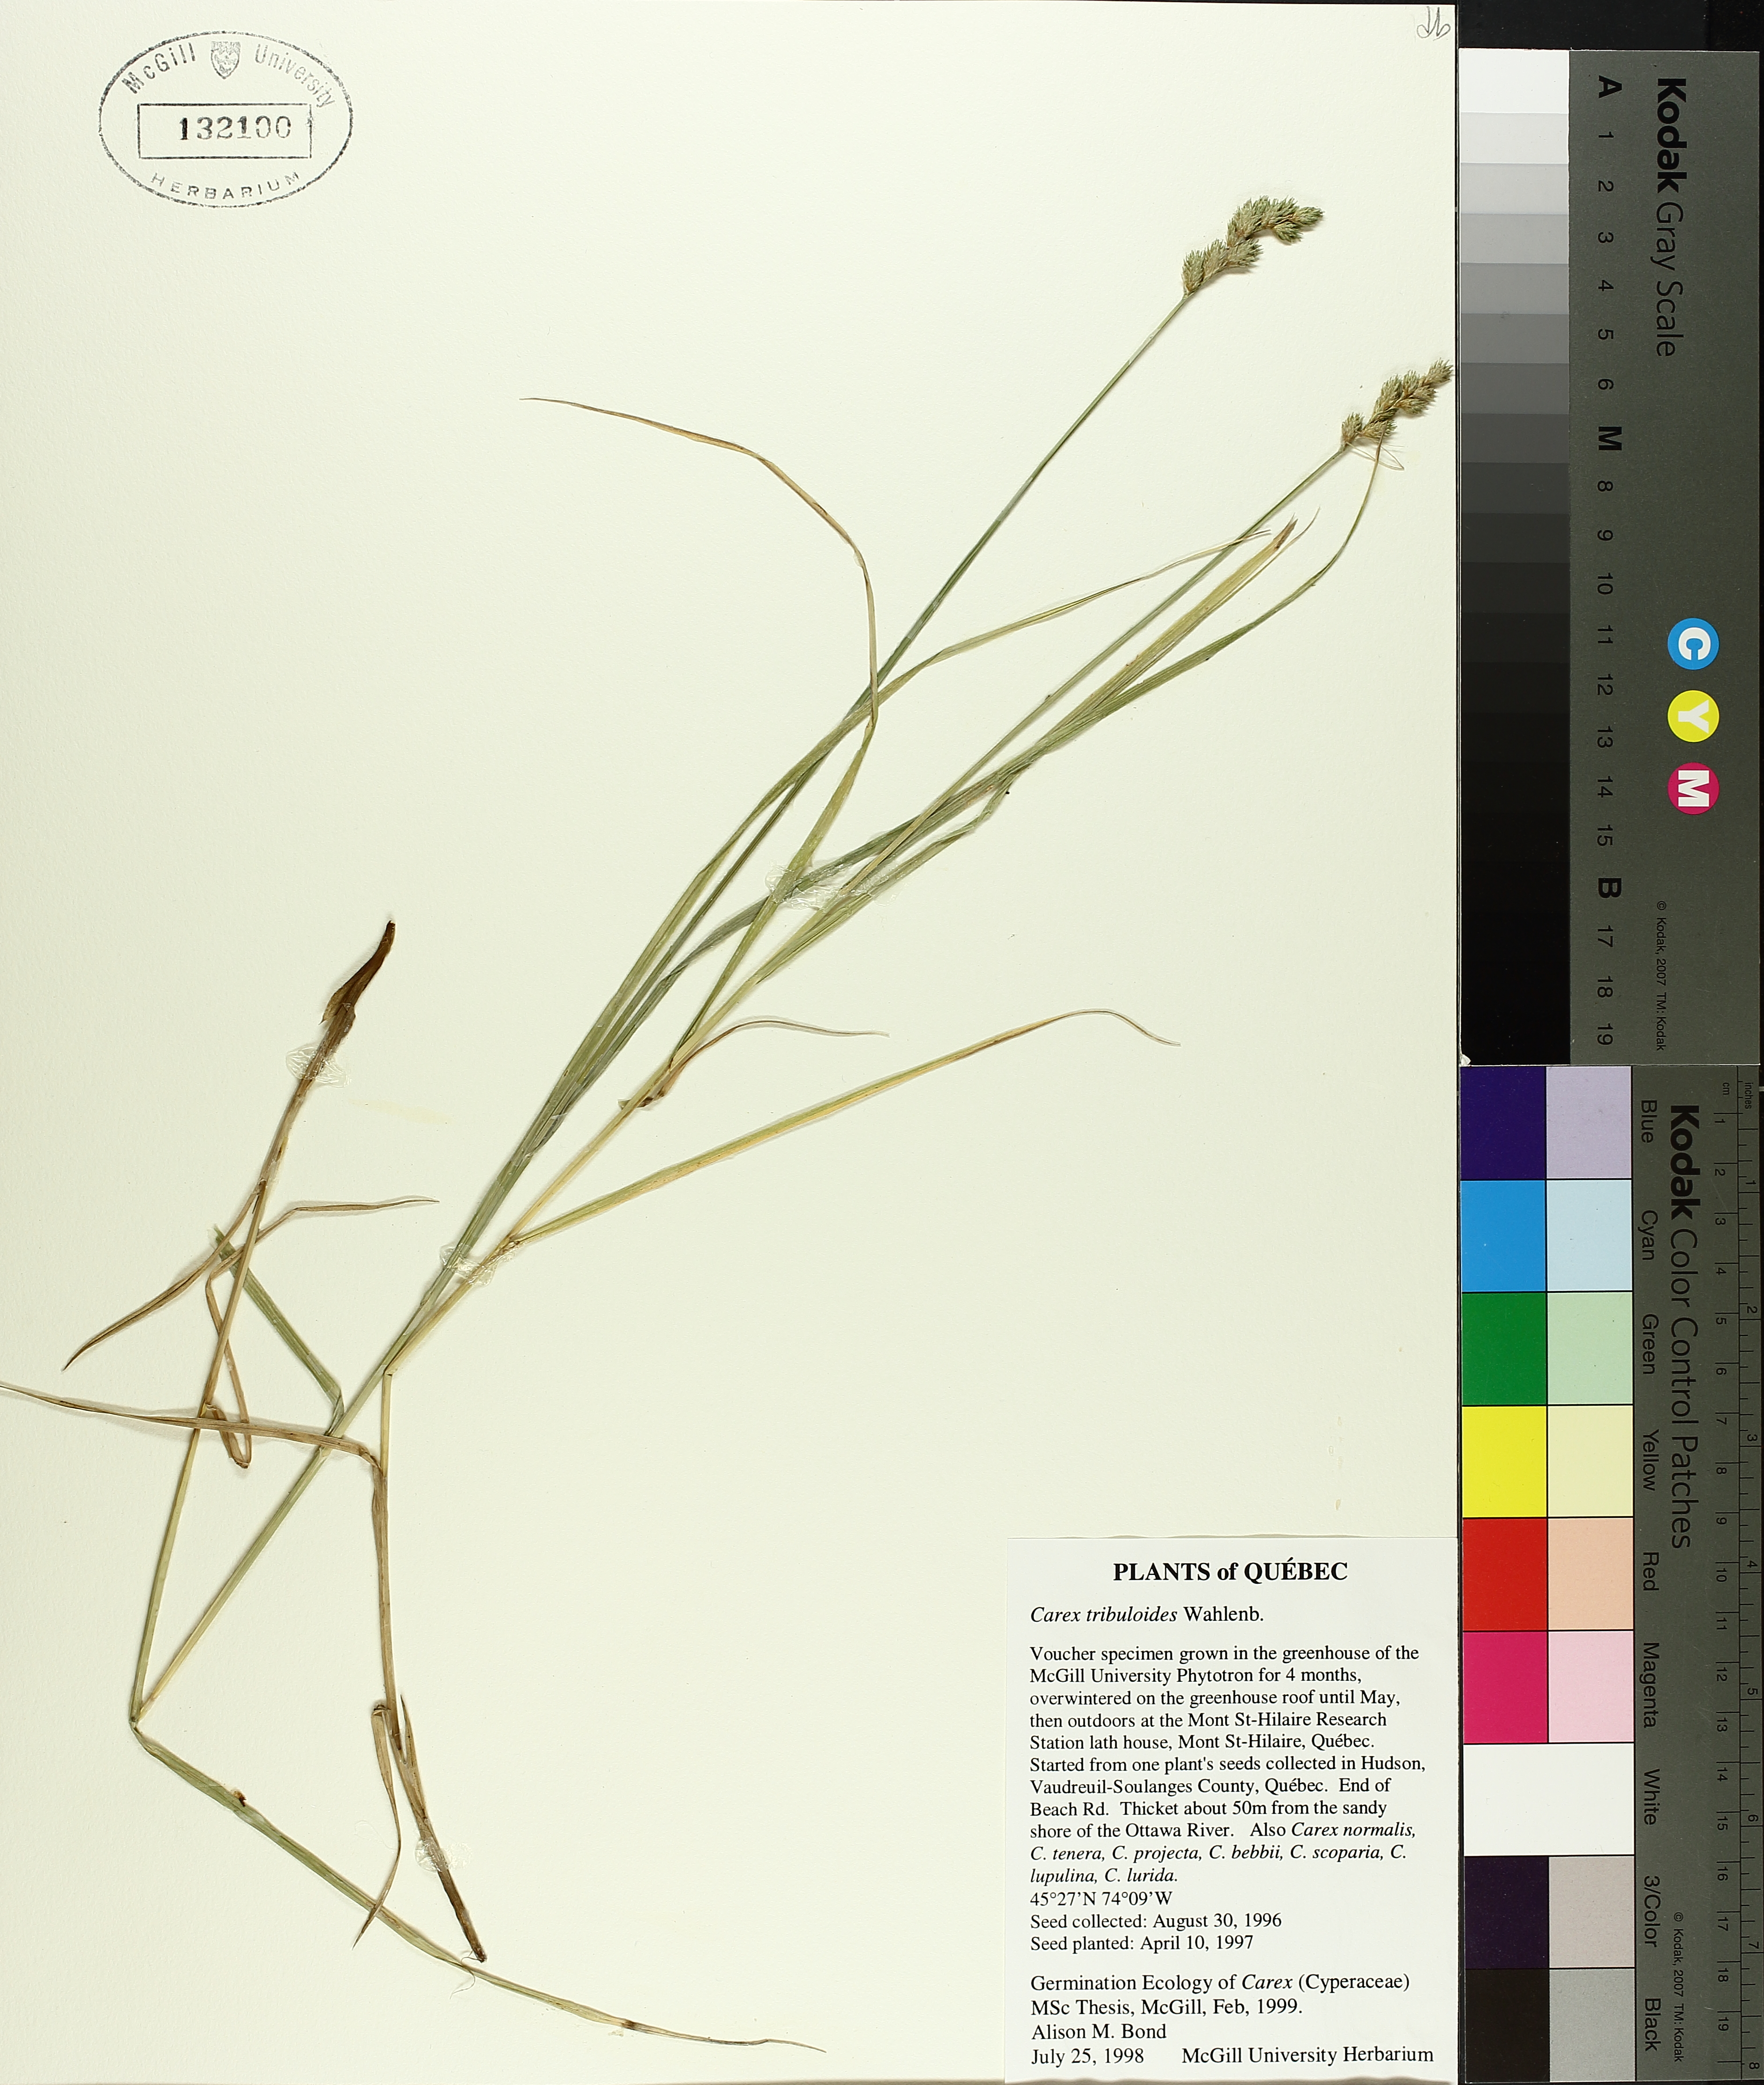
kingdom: Plantae
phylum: Tracheophyta
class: Liliopsida
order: Poales
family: Cyperaceae
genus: Carex
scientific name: Carex tribuloides
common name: Blunt broom sedge
